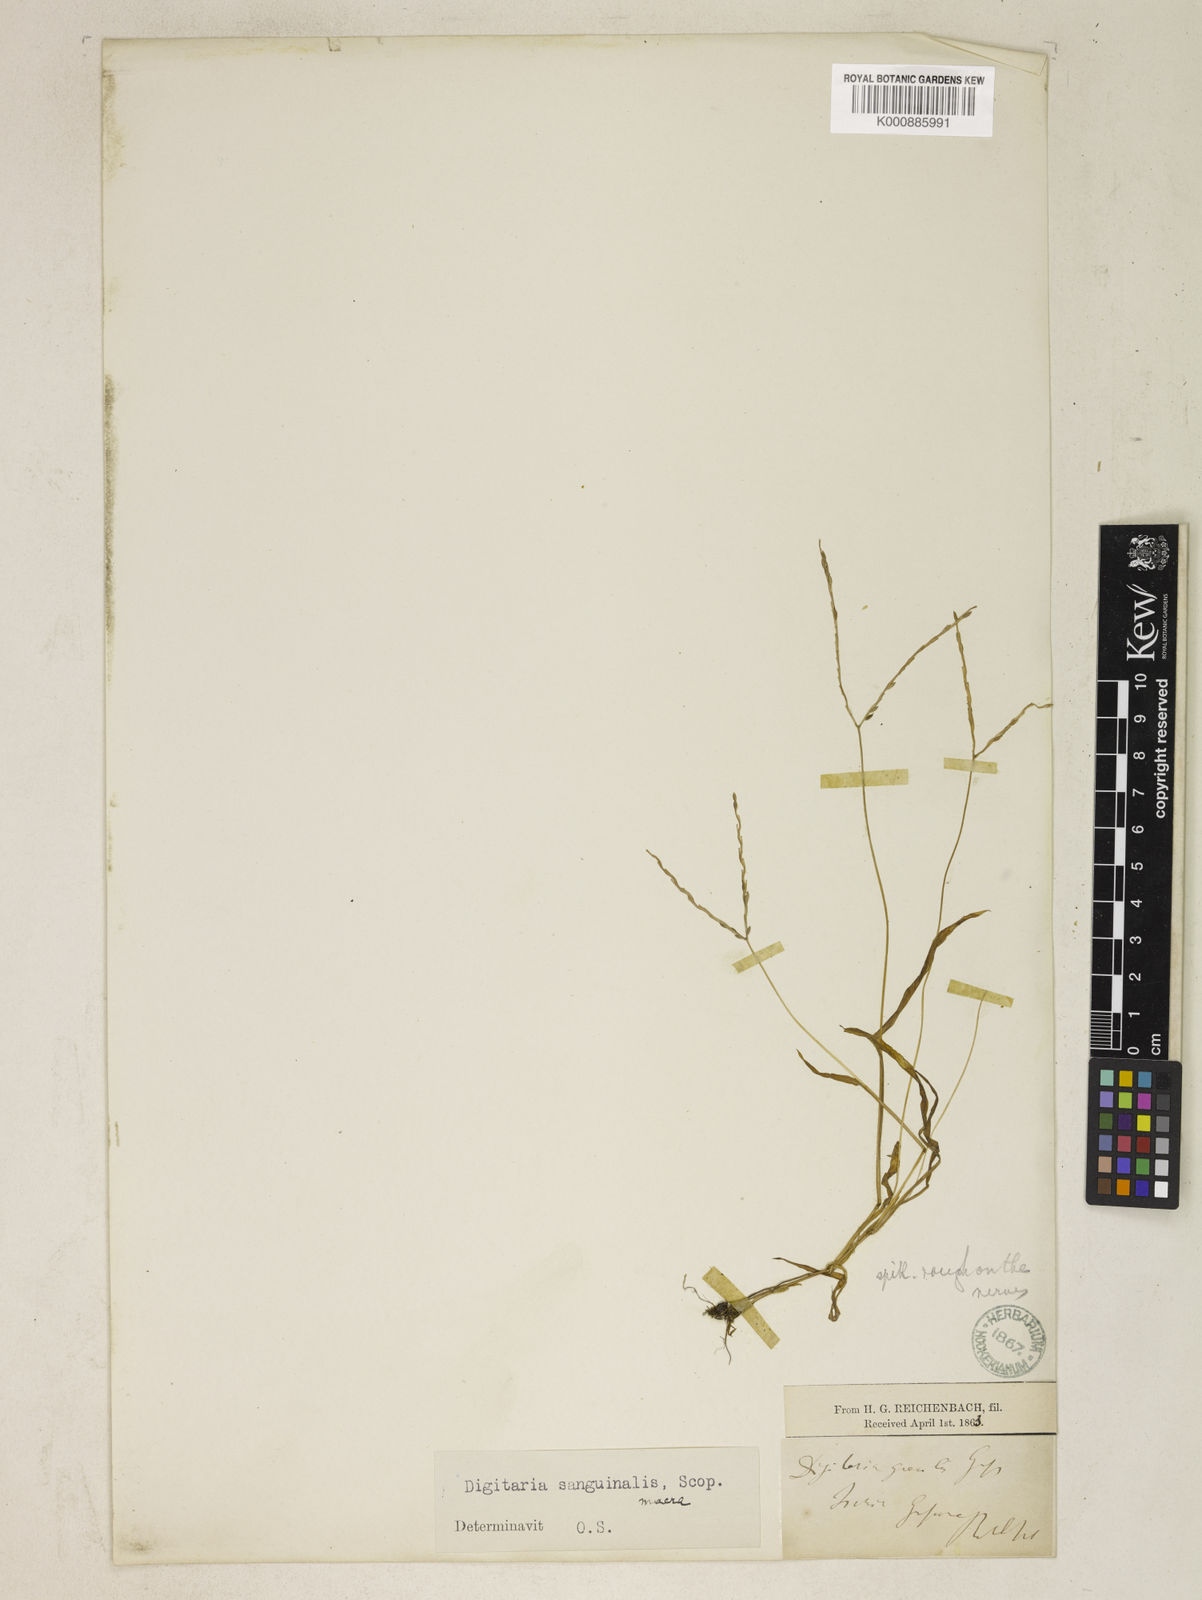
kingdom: Plantae
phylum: Tracheophyta
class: Liliopsida
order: Poales
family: Poaceae
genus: Digitaria
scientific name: Digitaria sanguinalis
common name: Hairy crabgrass
